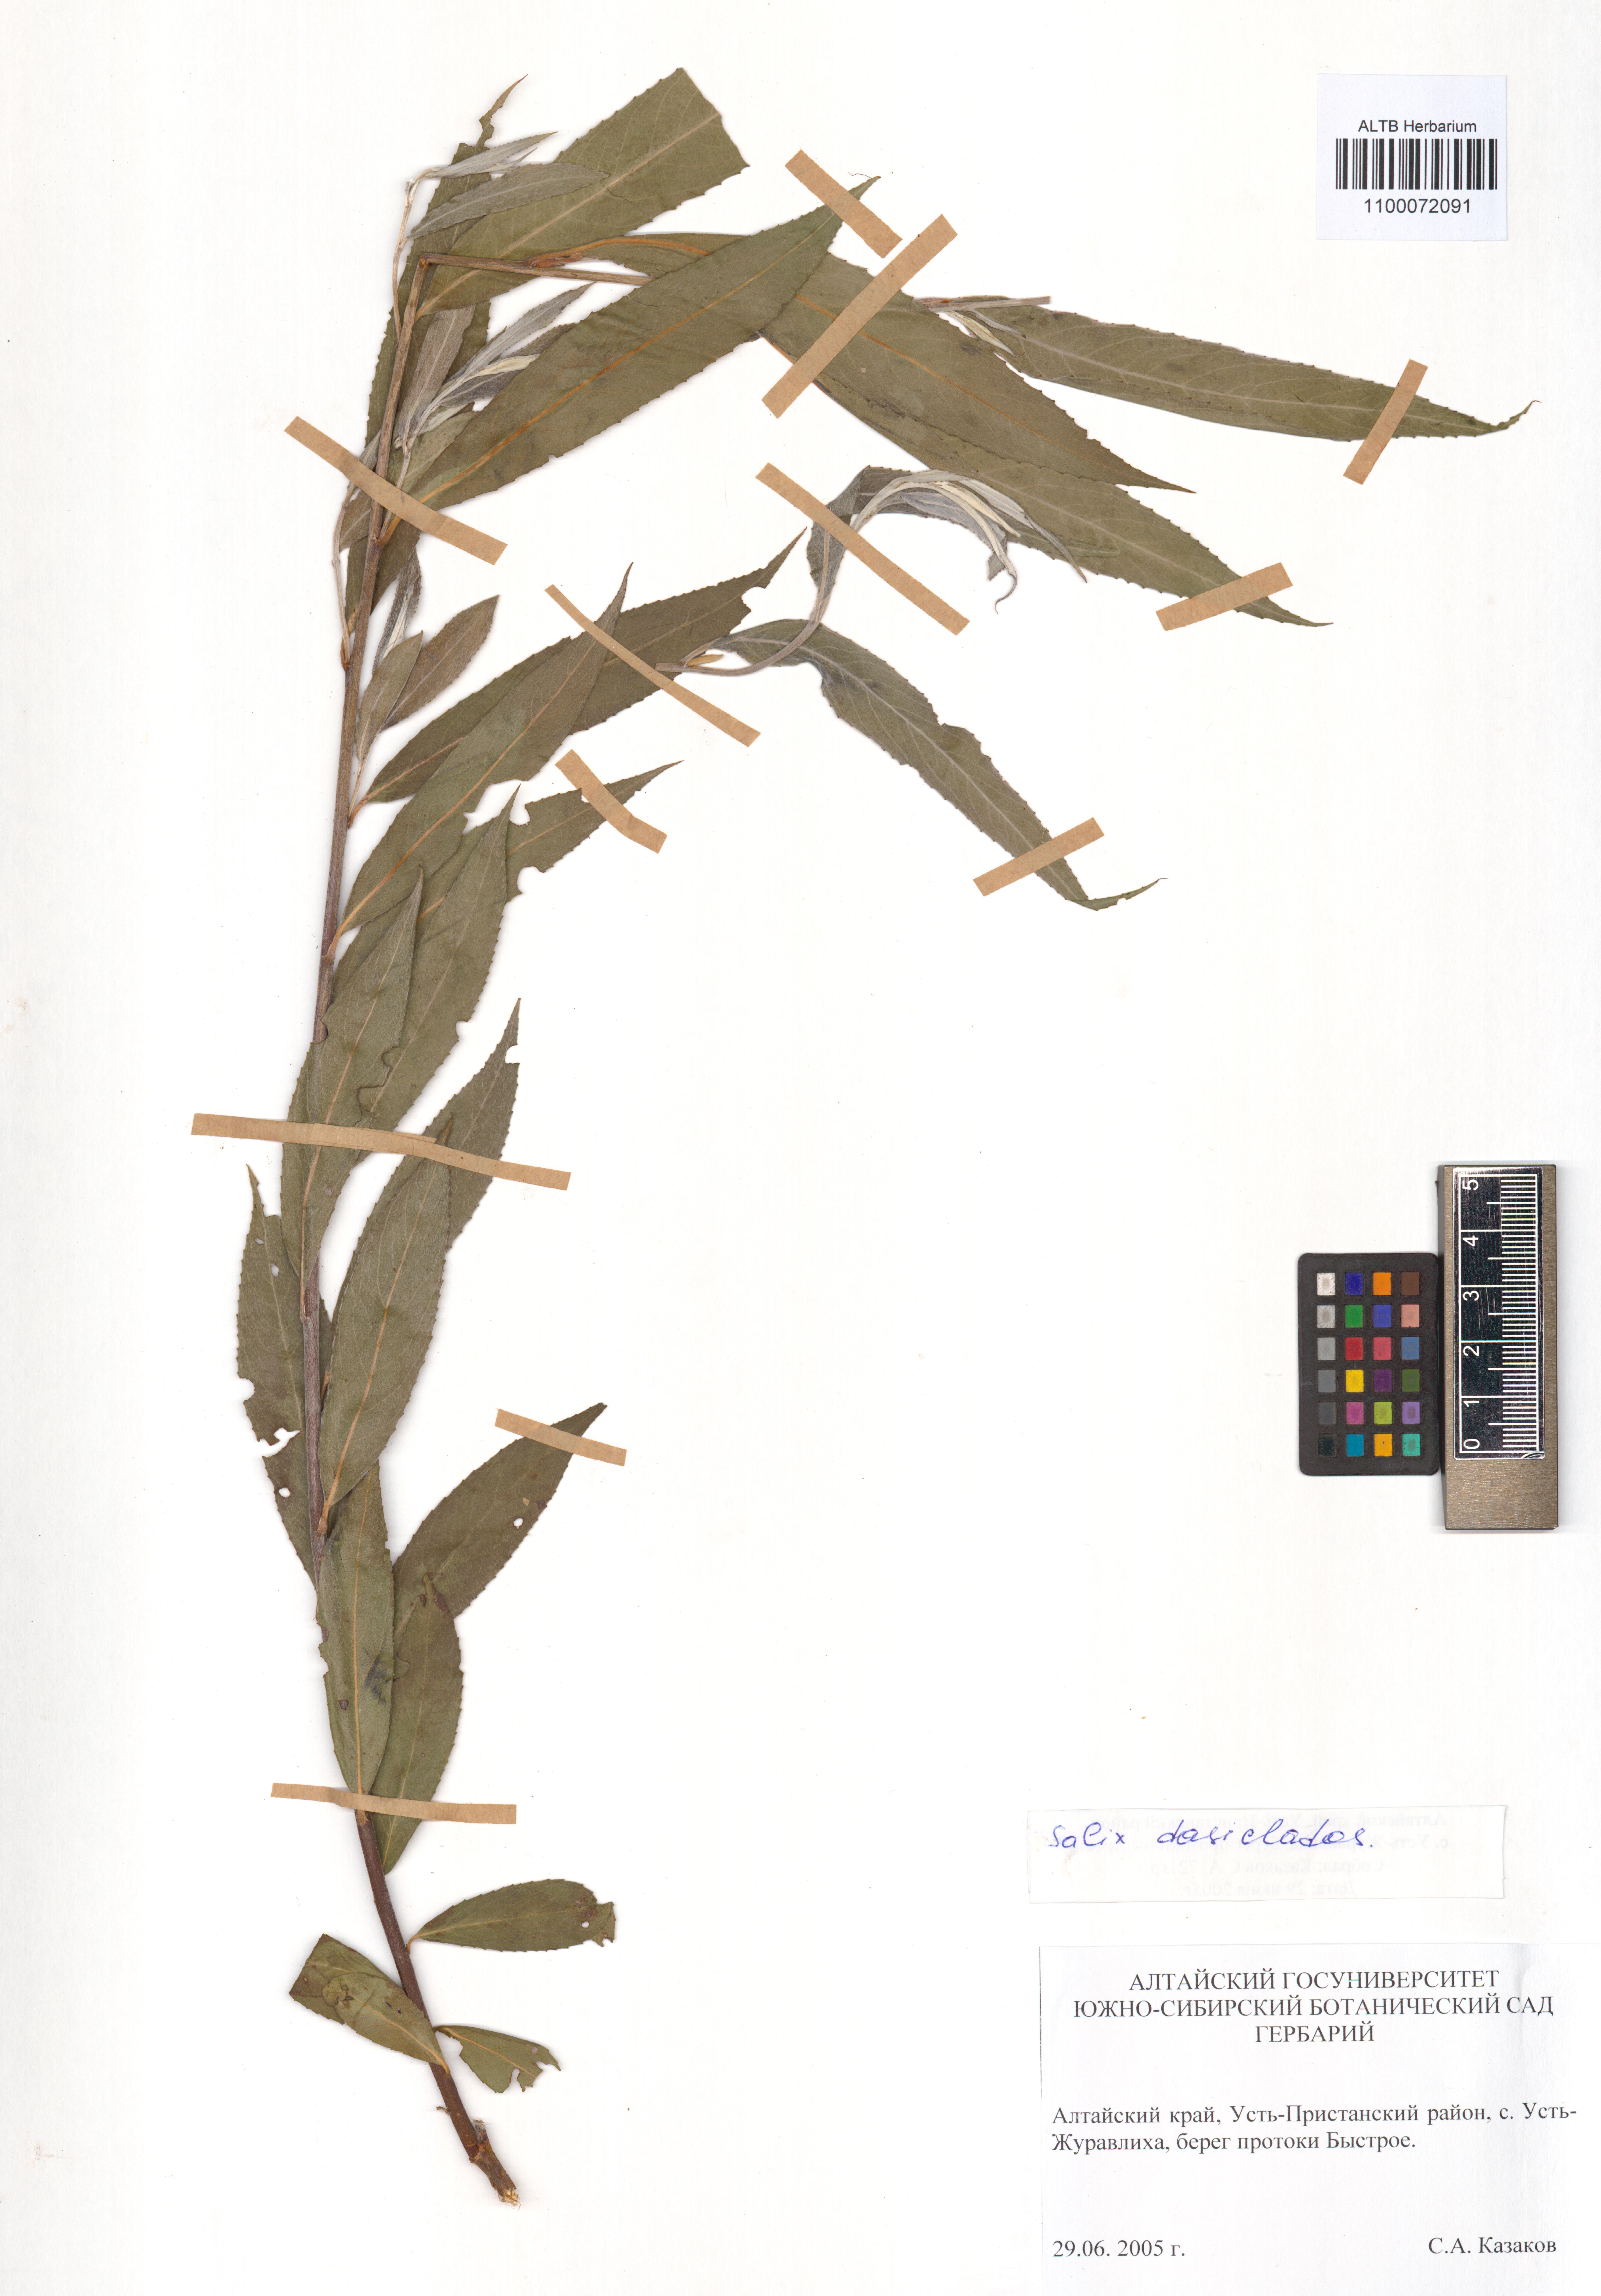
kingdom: Plantae
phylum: Tracheophyta
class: Magnoliopsida
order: Malpighiales
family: Salicaceae
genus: Salix
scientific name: Salix gmelinii
